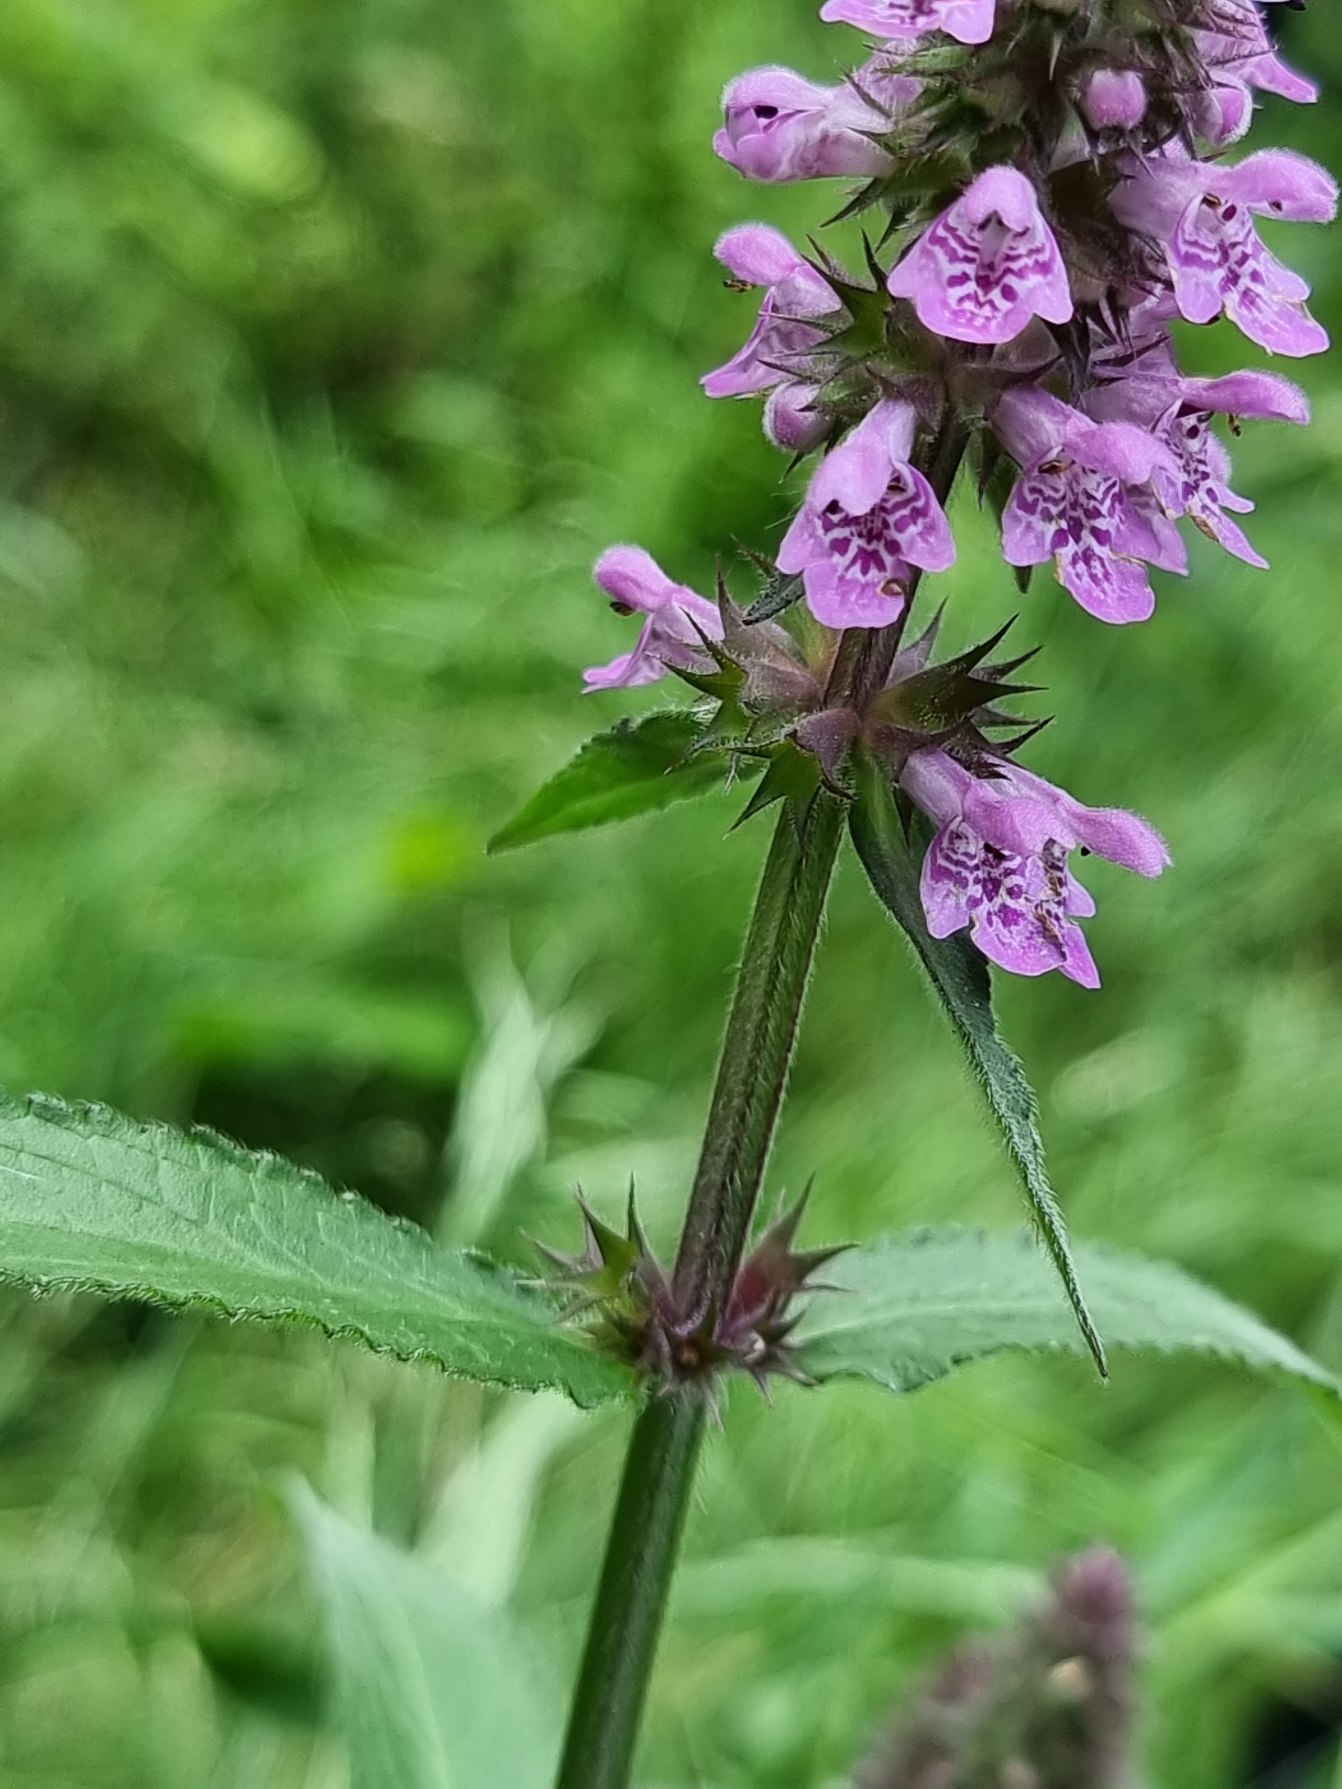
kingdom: Plantae
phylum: Tracheophyta
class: Magnoliopsida
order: Lamiales
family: Lamiaceae
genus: Stachys
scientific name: Stachys palustris
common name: Kær-galtetand
